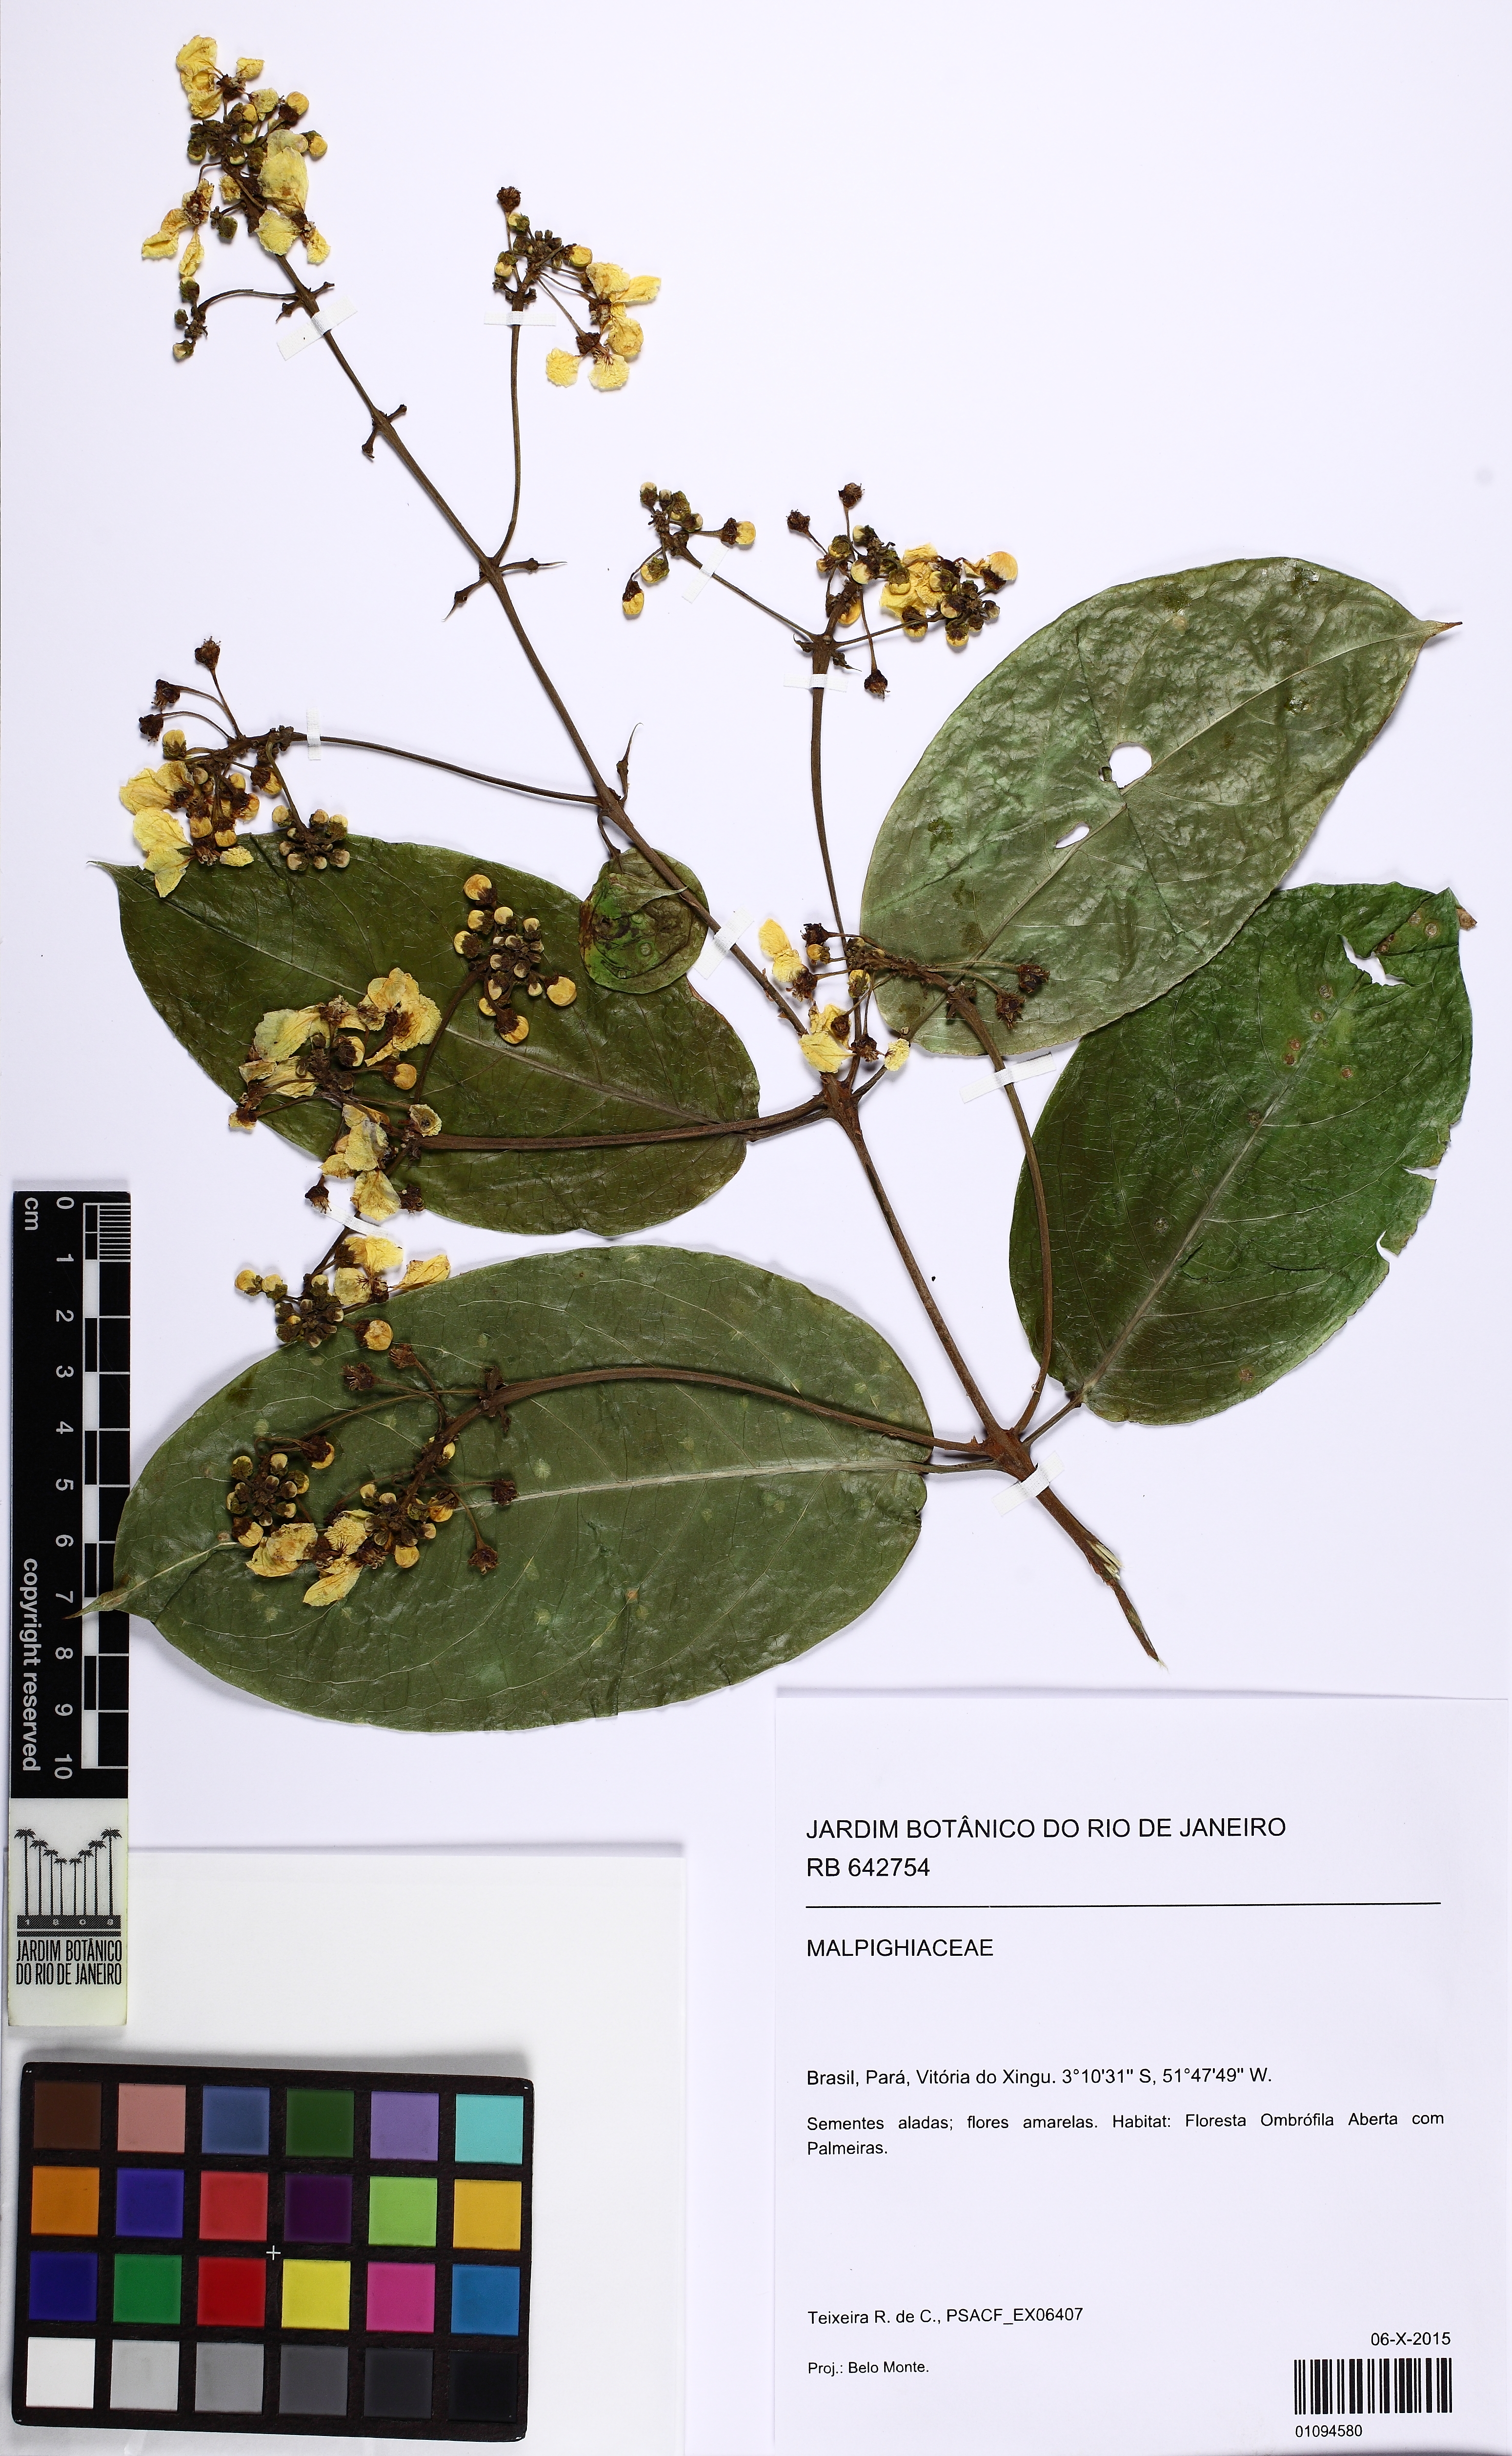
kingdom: Plantae
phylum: Tracheophyta
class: Magnoliopsida
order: Malpighiales
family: Malpighiaceae
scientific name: Malpighiaceae
